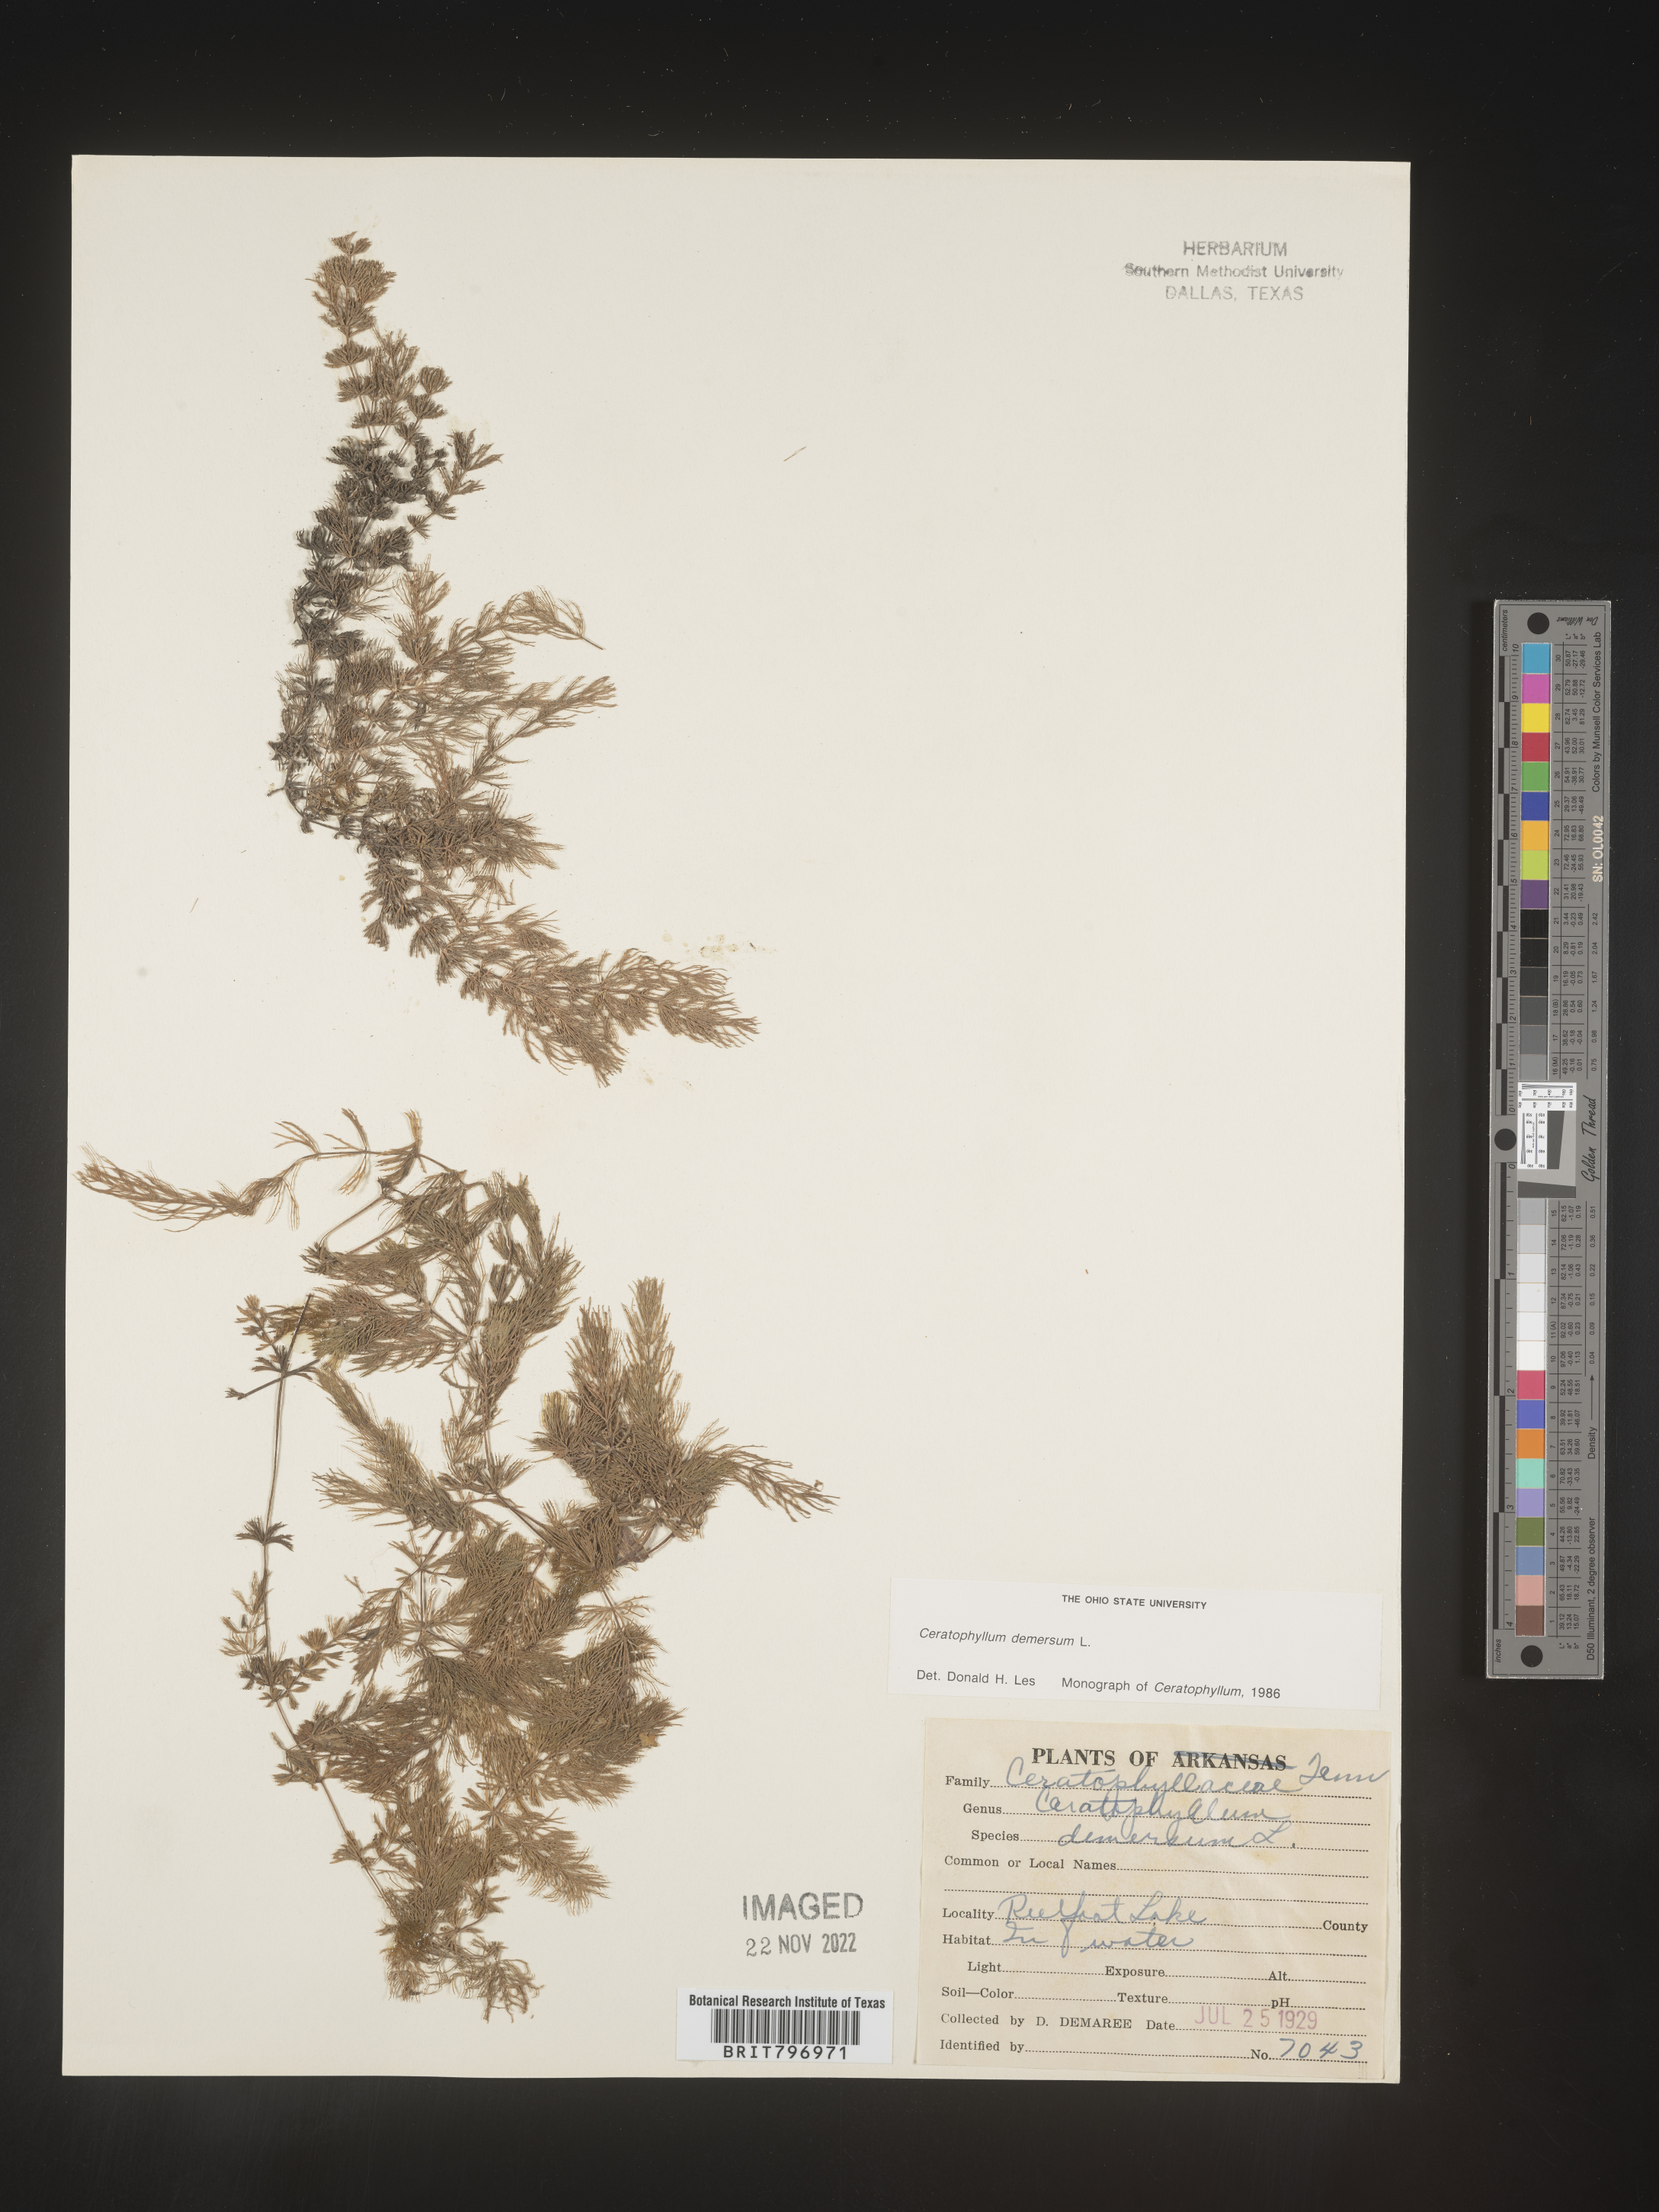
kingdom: Plantae
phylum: Tracheophyta
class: Magnoliopsida
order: Ceratophyllales
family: Ceratophyllaceae
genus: Ceratophyllum
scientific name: Ceratophyllum demersum
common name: Rigid hornwort
